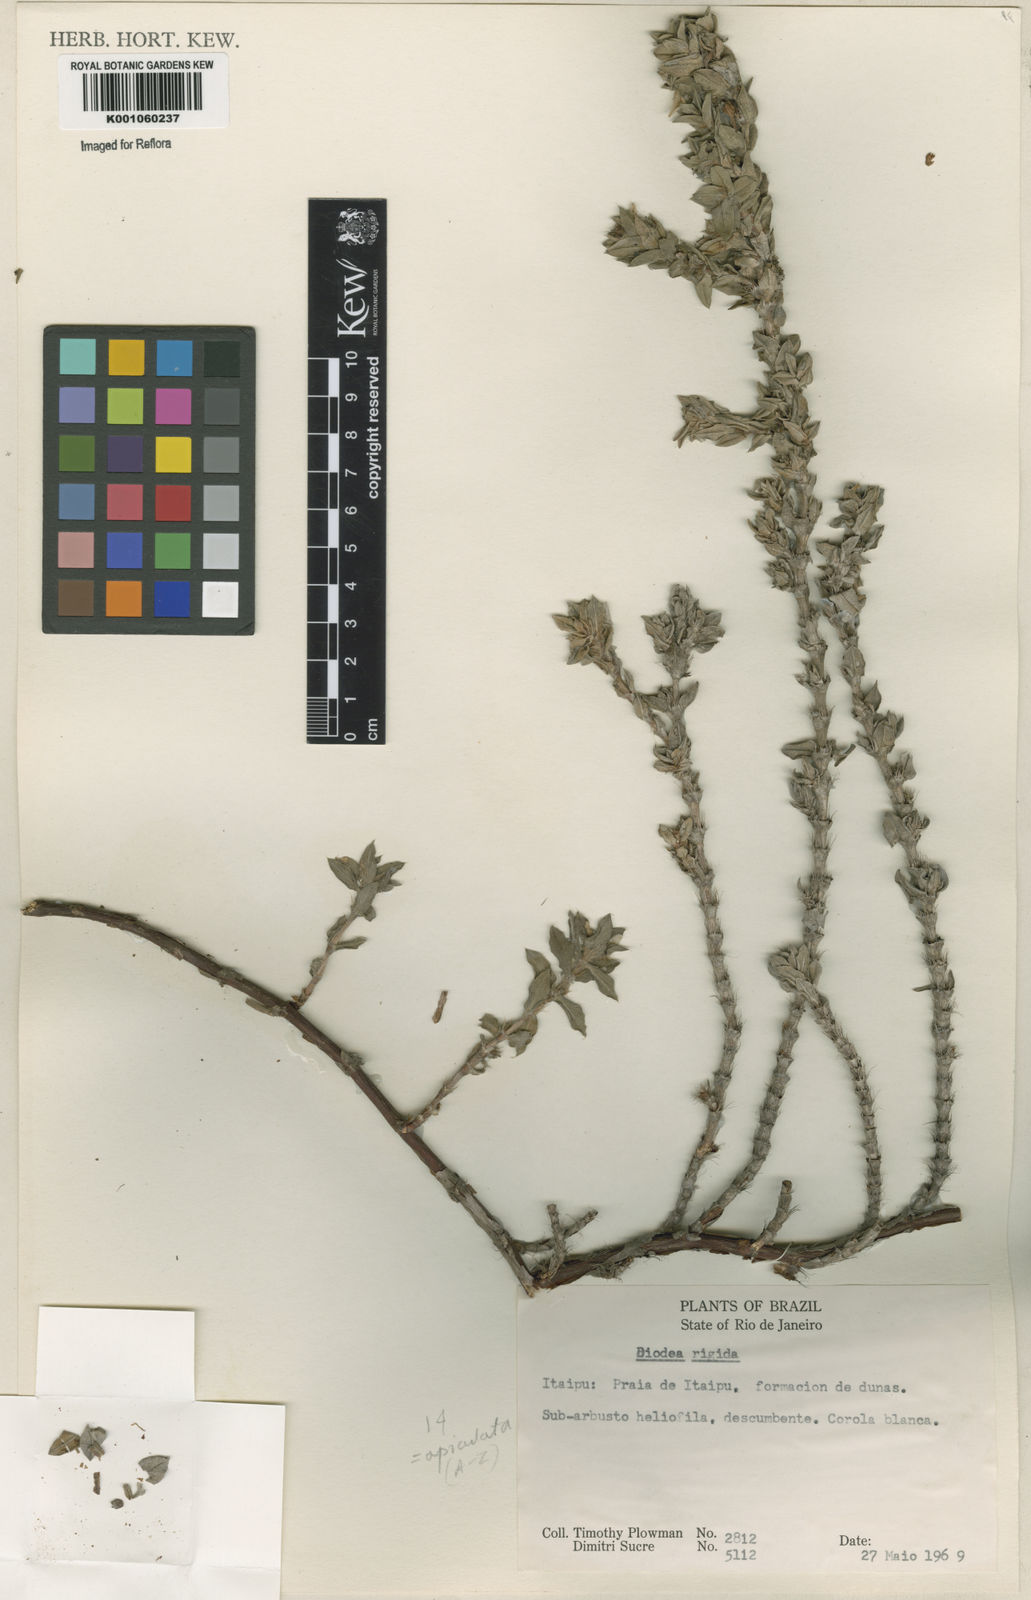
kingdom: Plantae
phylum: Tracheophyta
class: Magnoliopsida
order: Gentianales
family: Rubiaceae
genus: Hexasepalum
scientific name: Hexasepalum apiculatum
